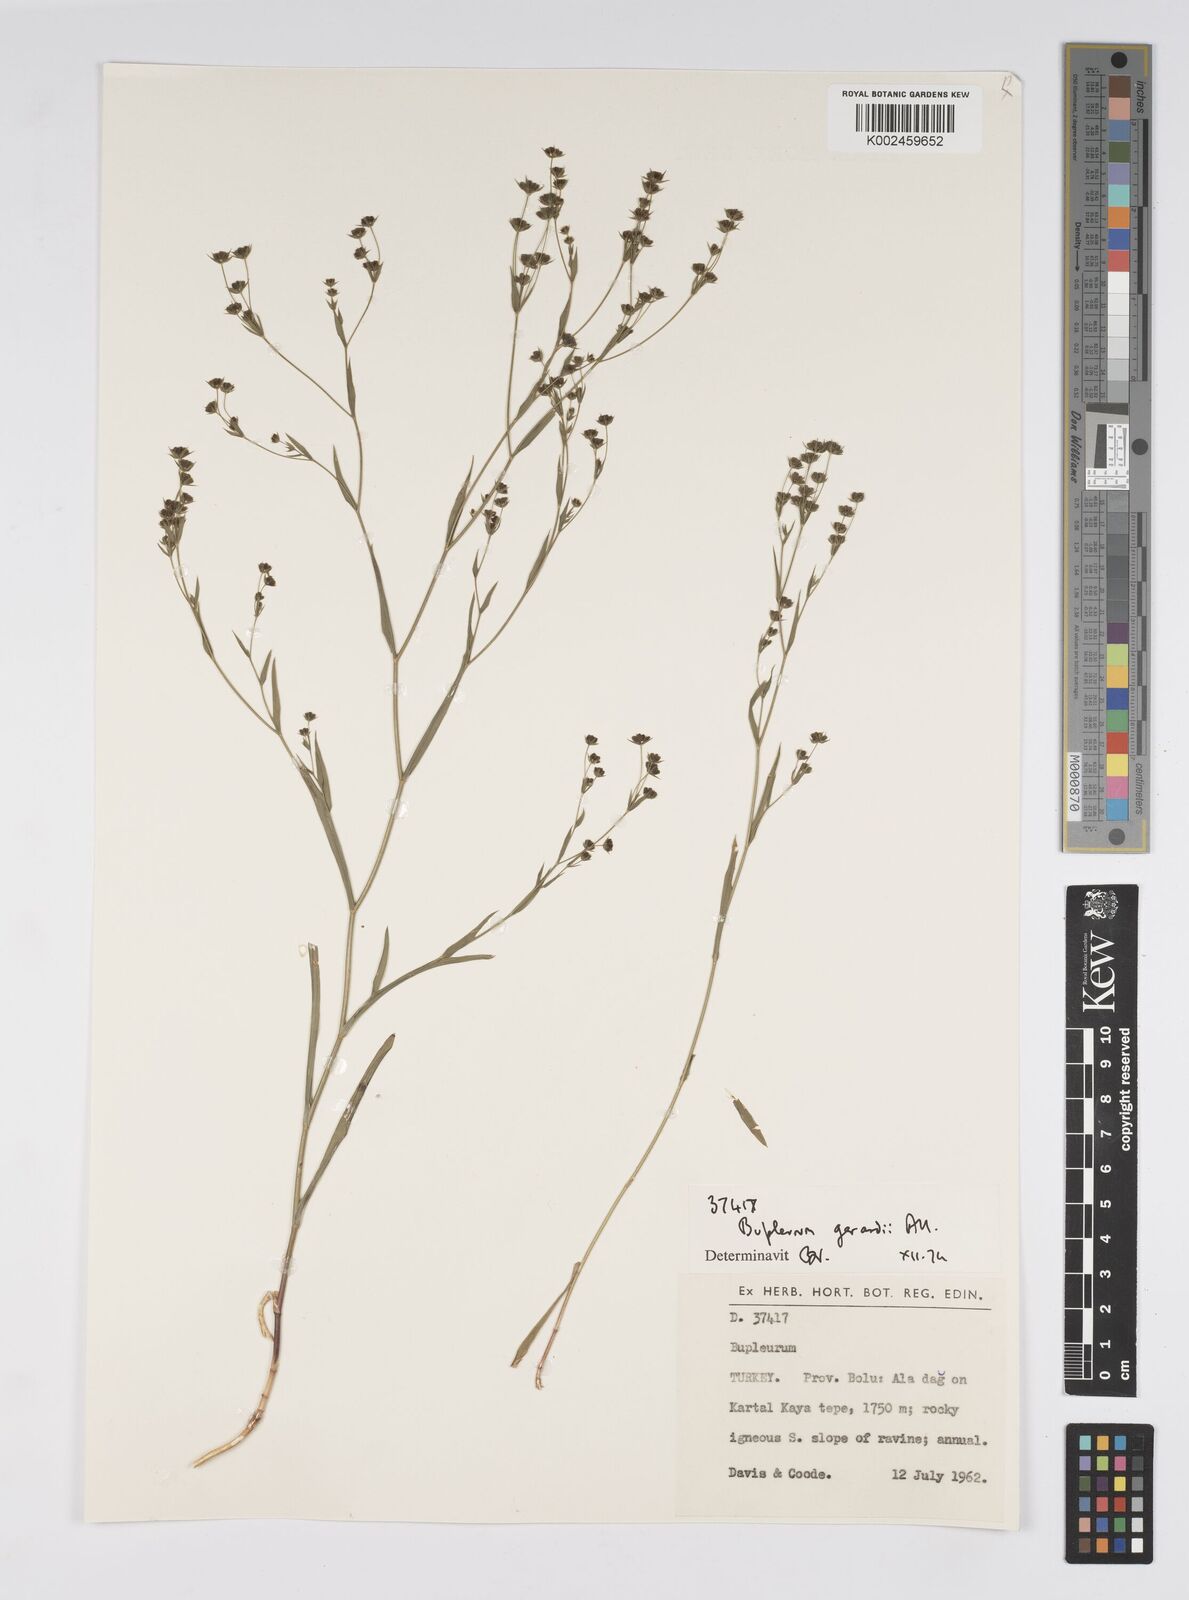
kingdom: Plantae
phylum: Tracheophyta
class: Magnoliopsida
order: Apiales
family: Apiaceae
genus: Bupleurum
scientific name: Bupleurum gerardi
